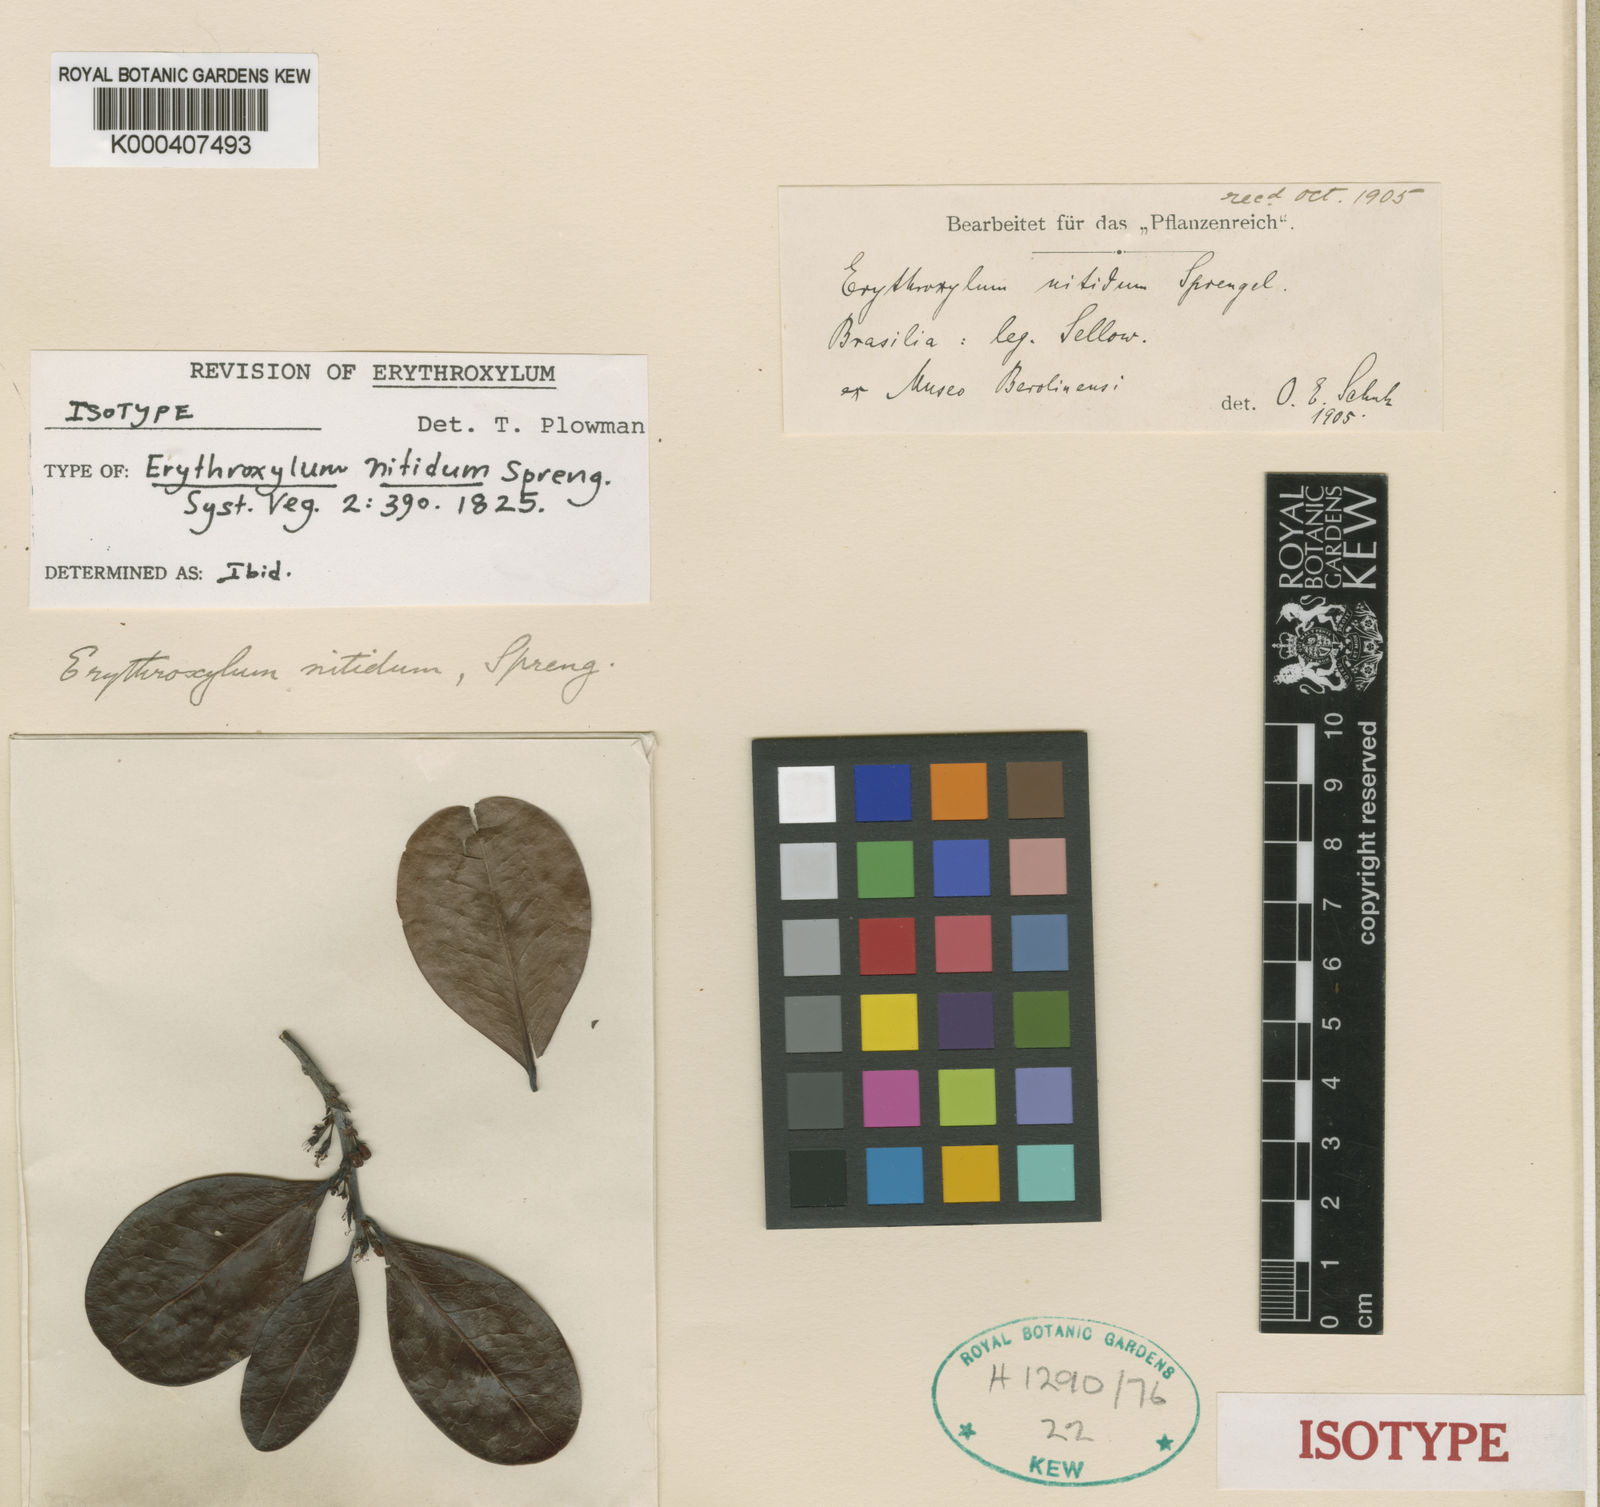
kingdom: Plantae
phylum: Tracheophyta
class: Magnoliopsida
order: Malpighiales
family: Erythroxylaceae
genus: Erythroxylum
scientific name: Erythroxylum deciduum
